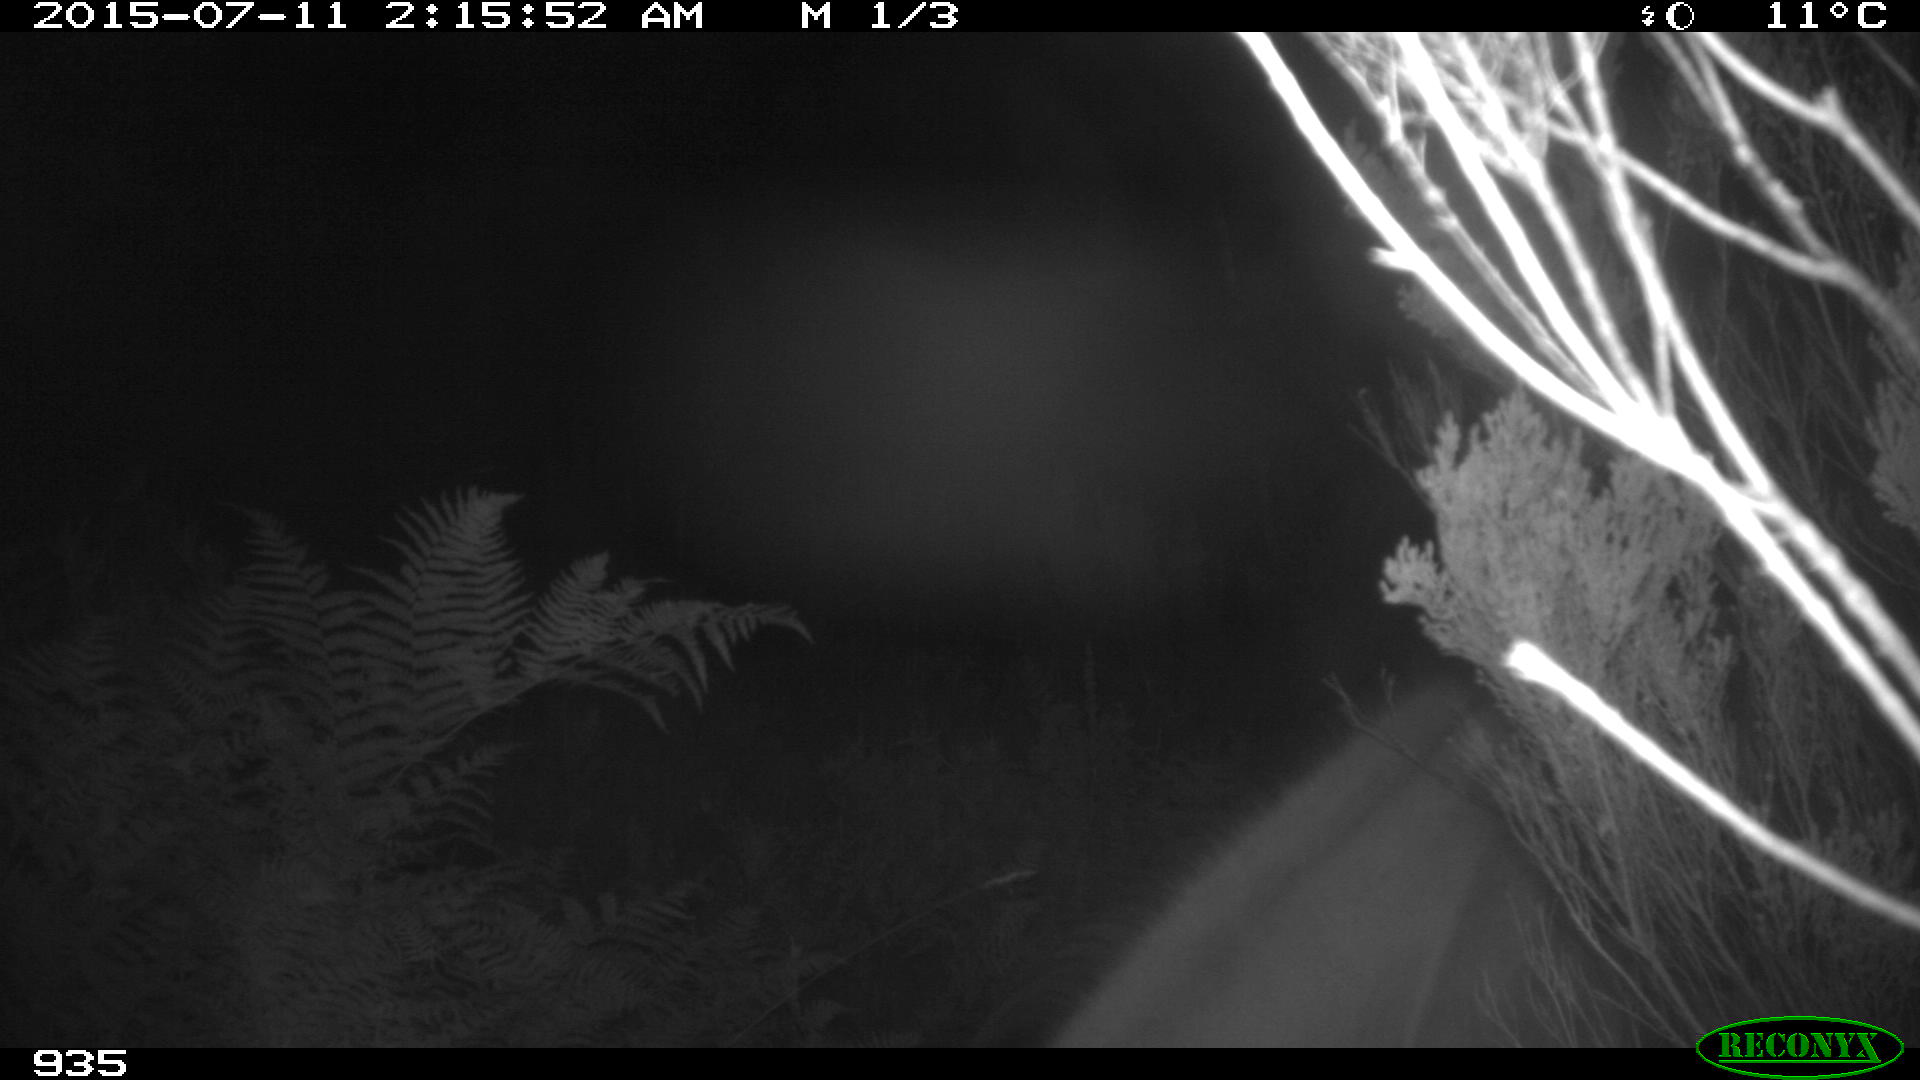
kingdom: Animalia
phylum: Chordata
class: Mammalia
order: Perissodactyla
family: Equidae
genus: Equus
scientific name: Equus caballus
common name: Horse
